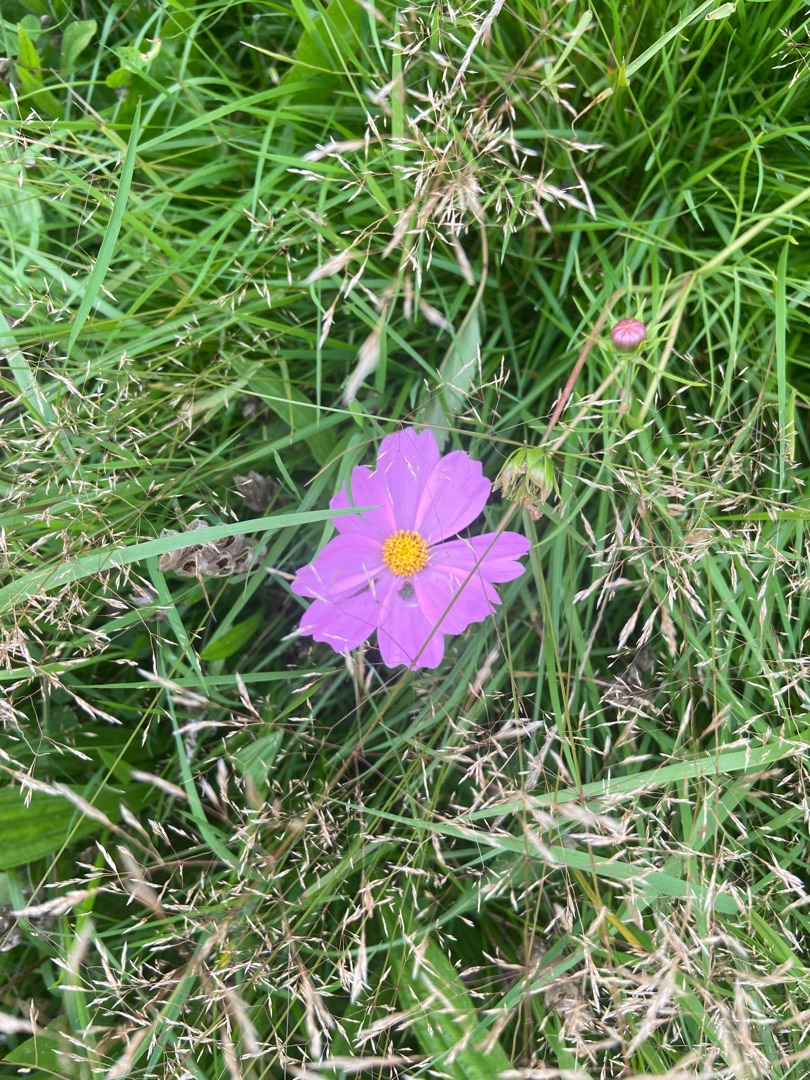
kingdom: Plantae
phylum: Tracheophyta
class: Magnoliopsida
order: Asterales
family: Asteraceae
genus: Cosmos
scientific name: Cosmos bipinnatus
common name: Stolt kavaler
